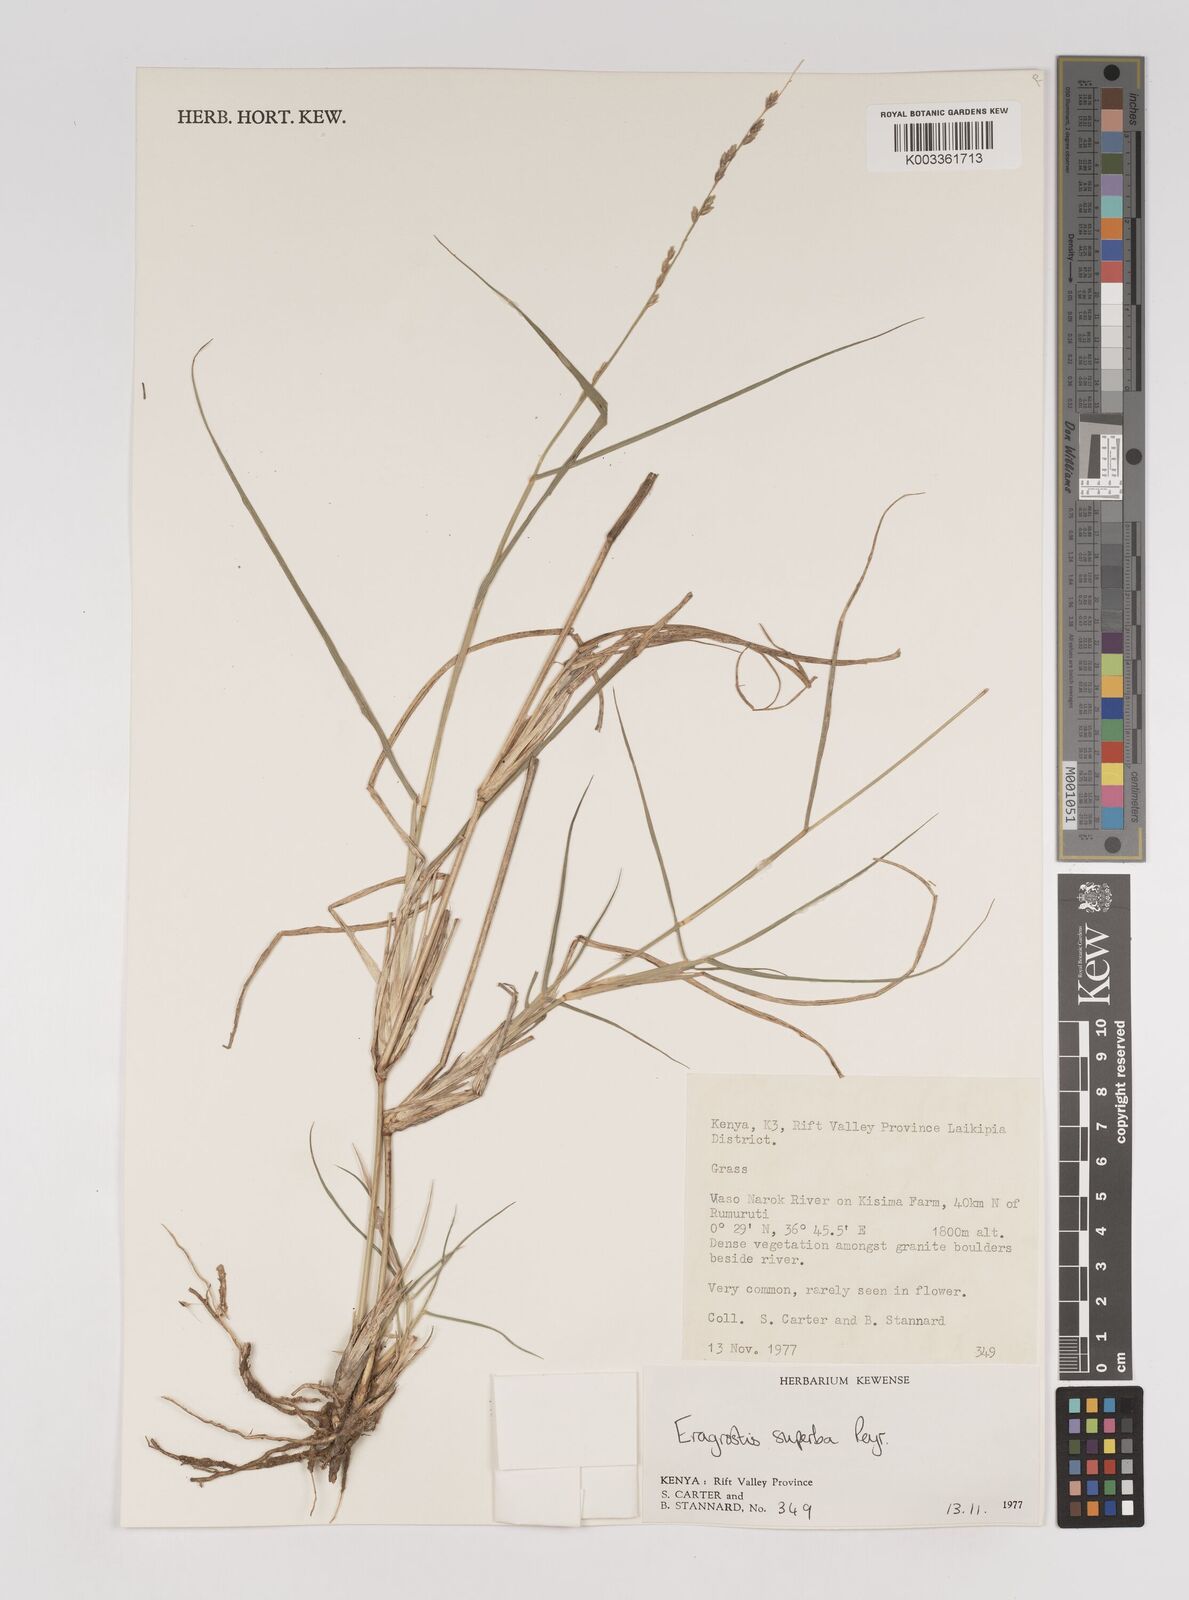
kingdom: Plantae
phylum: Tracheophyta
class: Liliopsida
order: Poales
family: Poaceae
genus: Eragrostis
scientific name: Eragrostis superba
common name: Wilman lovegrass
